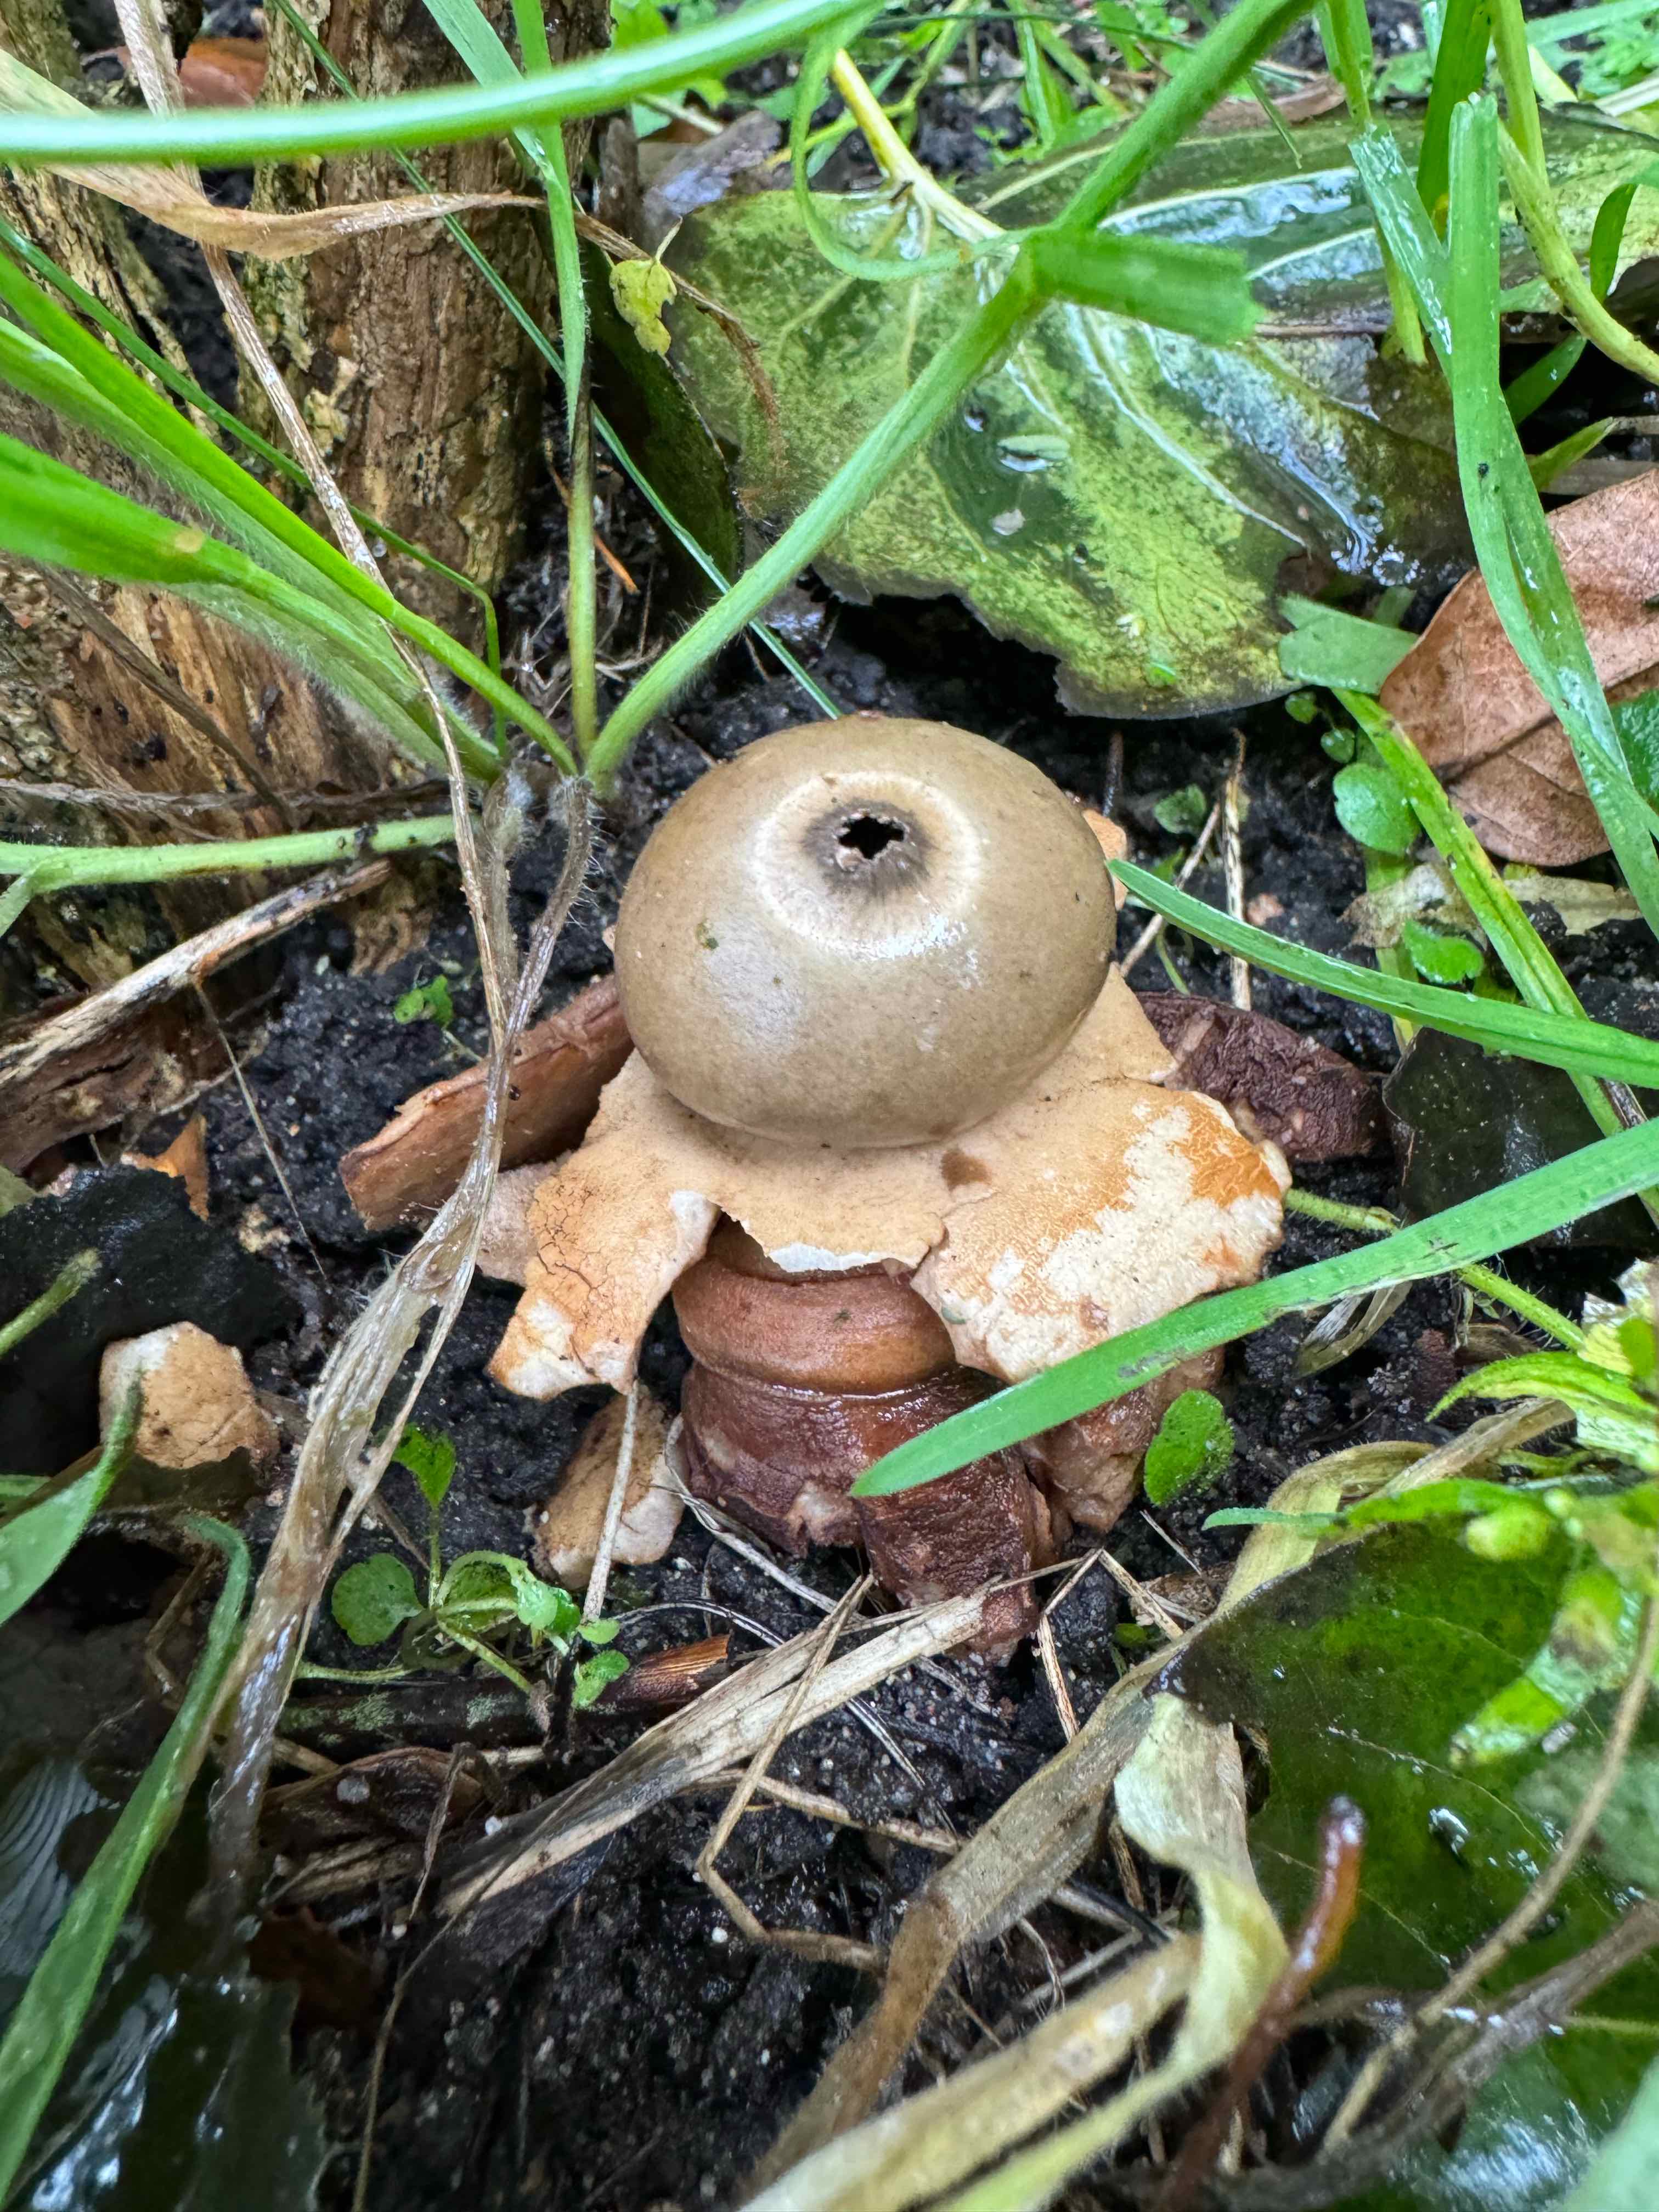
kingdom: Fungi
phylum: Basidiomycota
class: Agaricomycetes
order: Geastrales
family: Geastraceae
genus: Geastrum
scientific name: Geastrum michelianum
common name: kødet stjernebold
